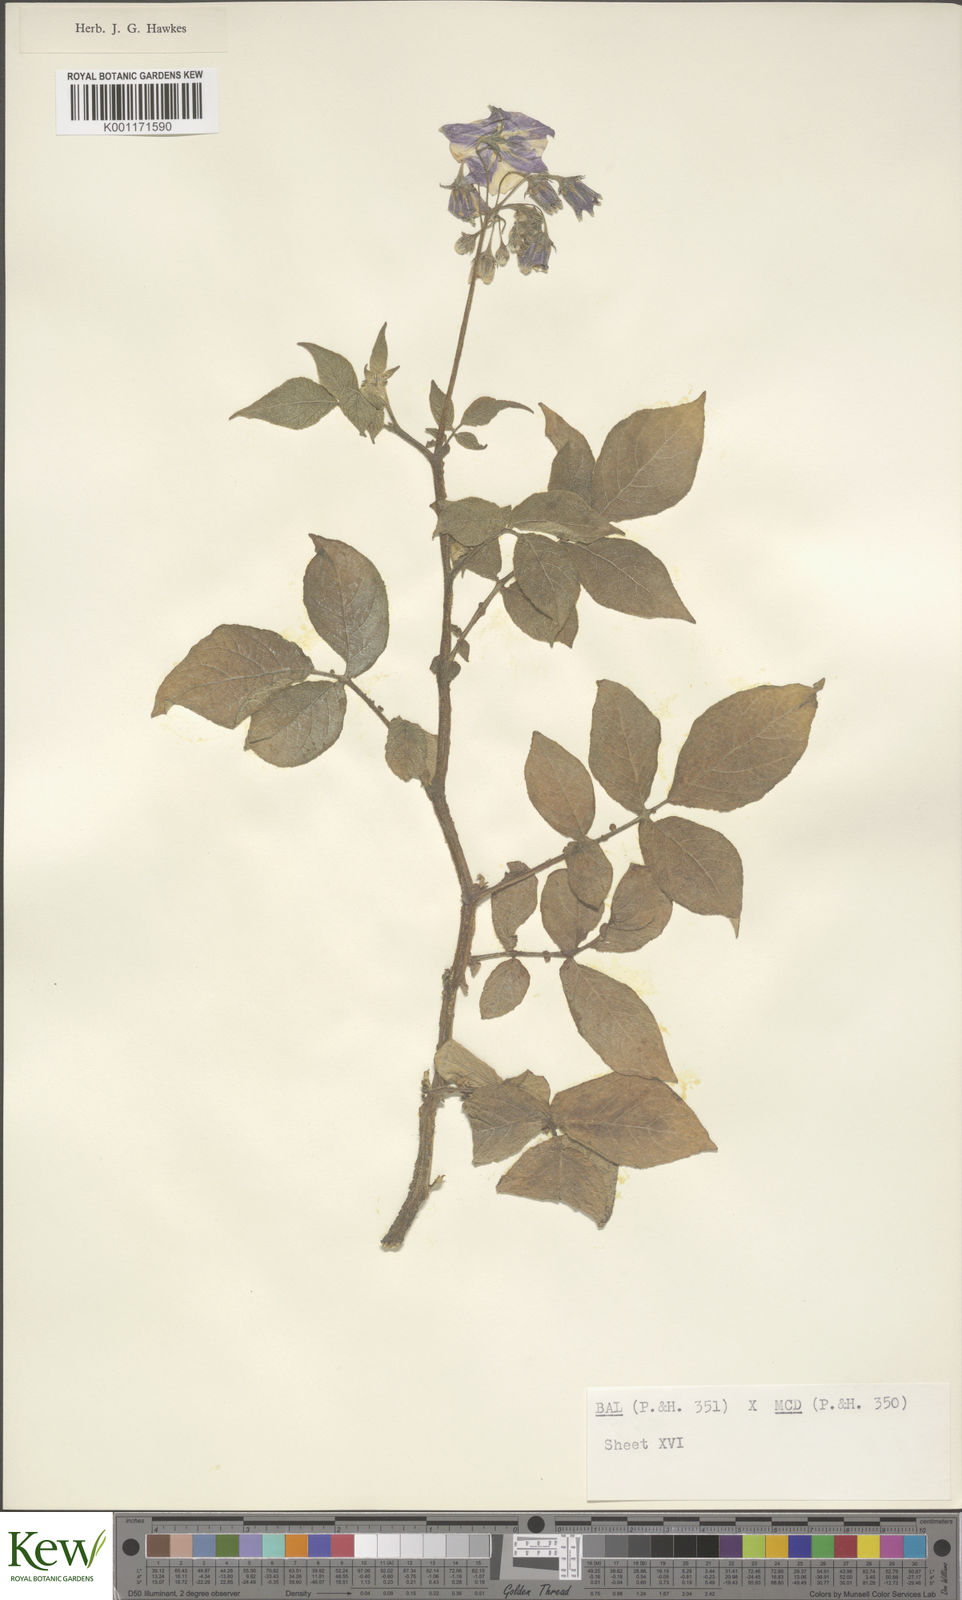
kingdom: Plantae
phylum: Tracheophyta
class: Magnoliopsida
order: Solanales
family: Solanaceae
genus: Solanum
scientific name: Solanum vernei
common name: Purple potato
